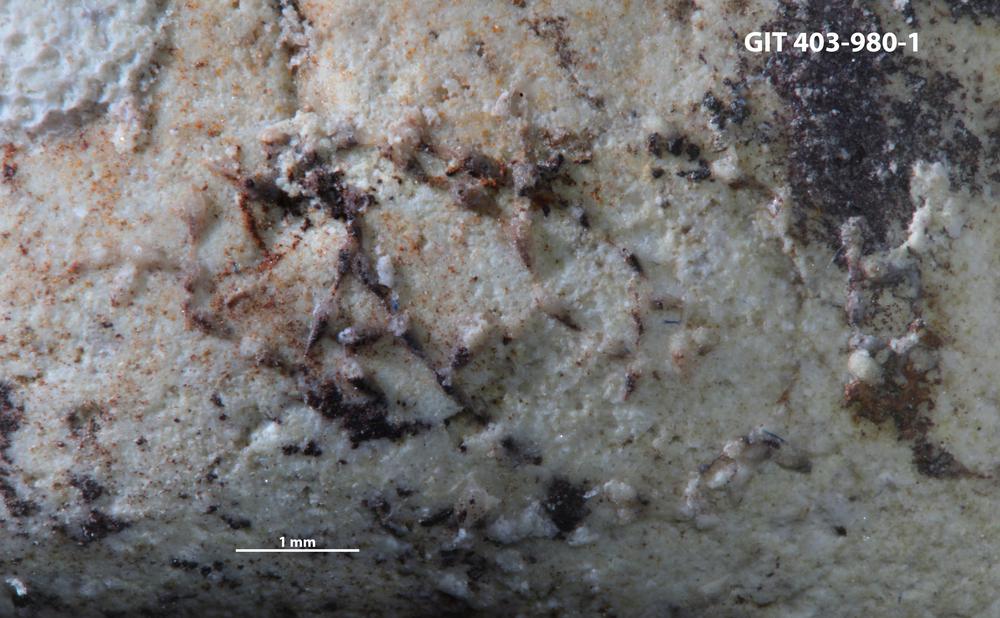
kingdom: Animalia
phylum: Bryozoa
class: Stenolaemata
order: Cyclostomatida
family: Corynotrypidae
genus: Corynotrypa
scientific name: Corynotrypa
